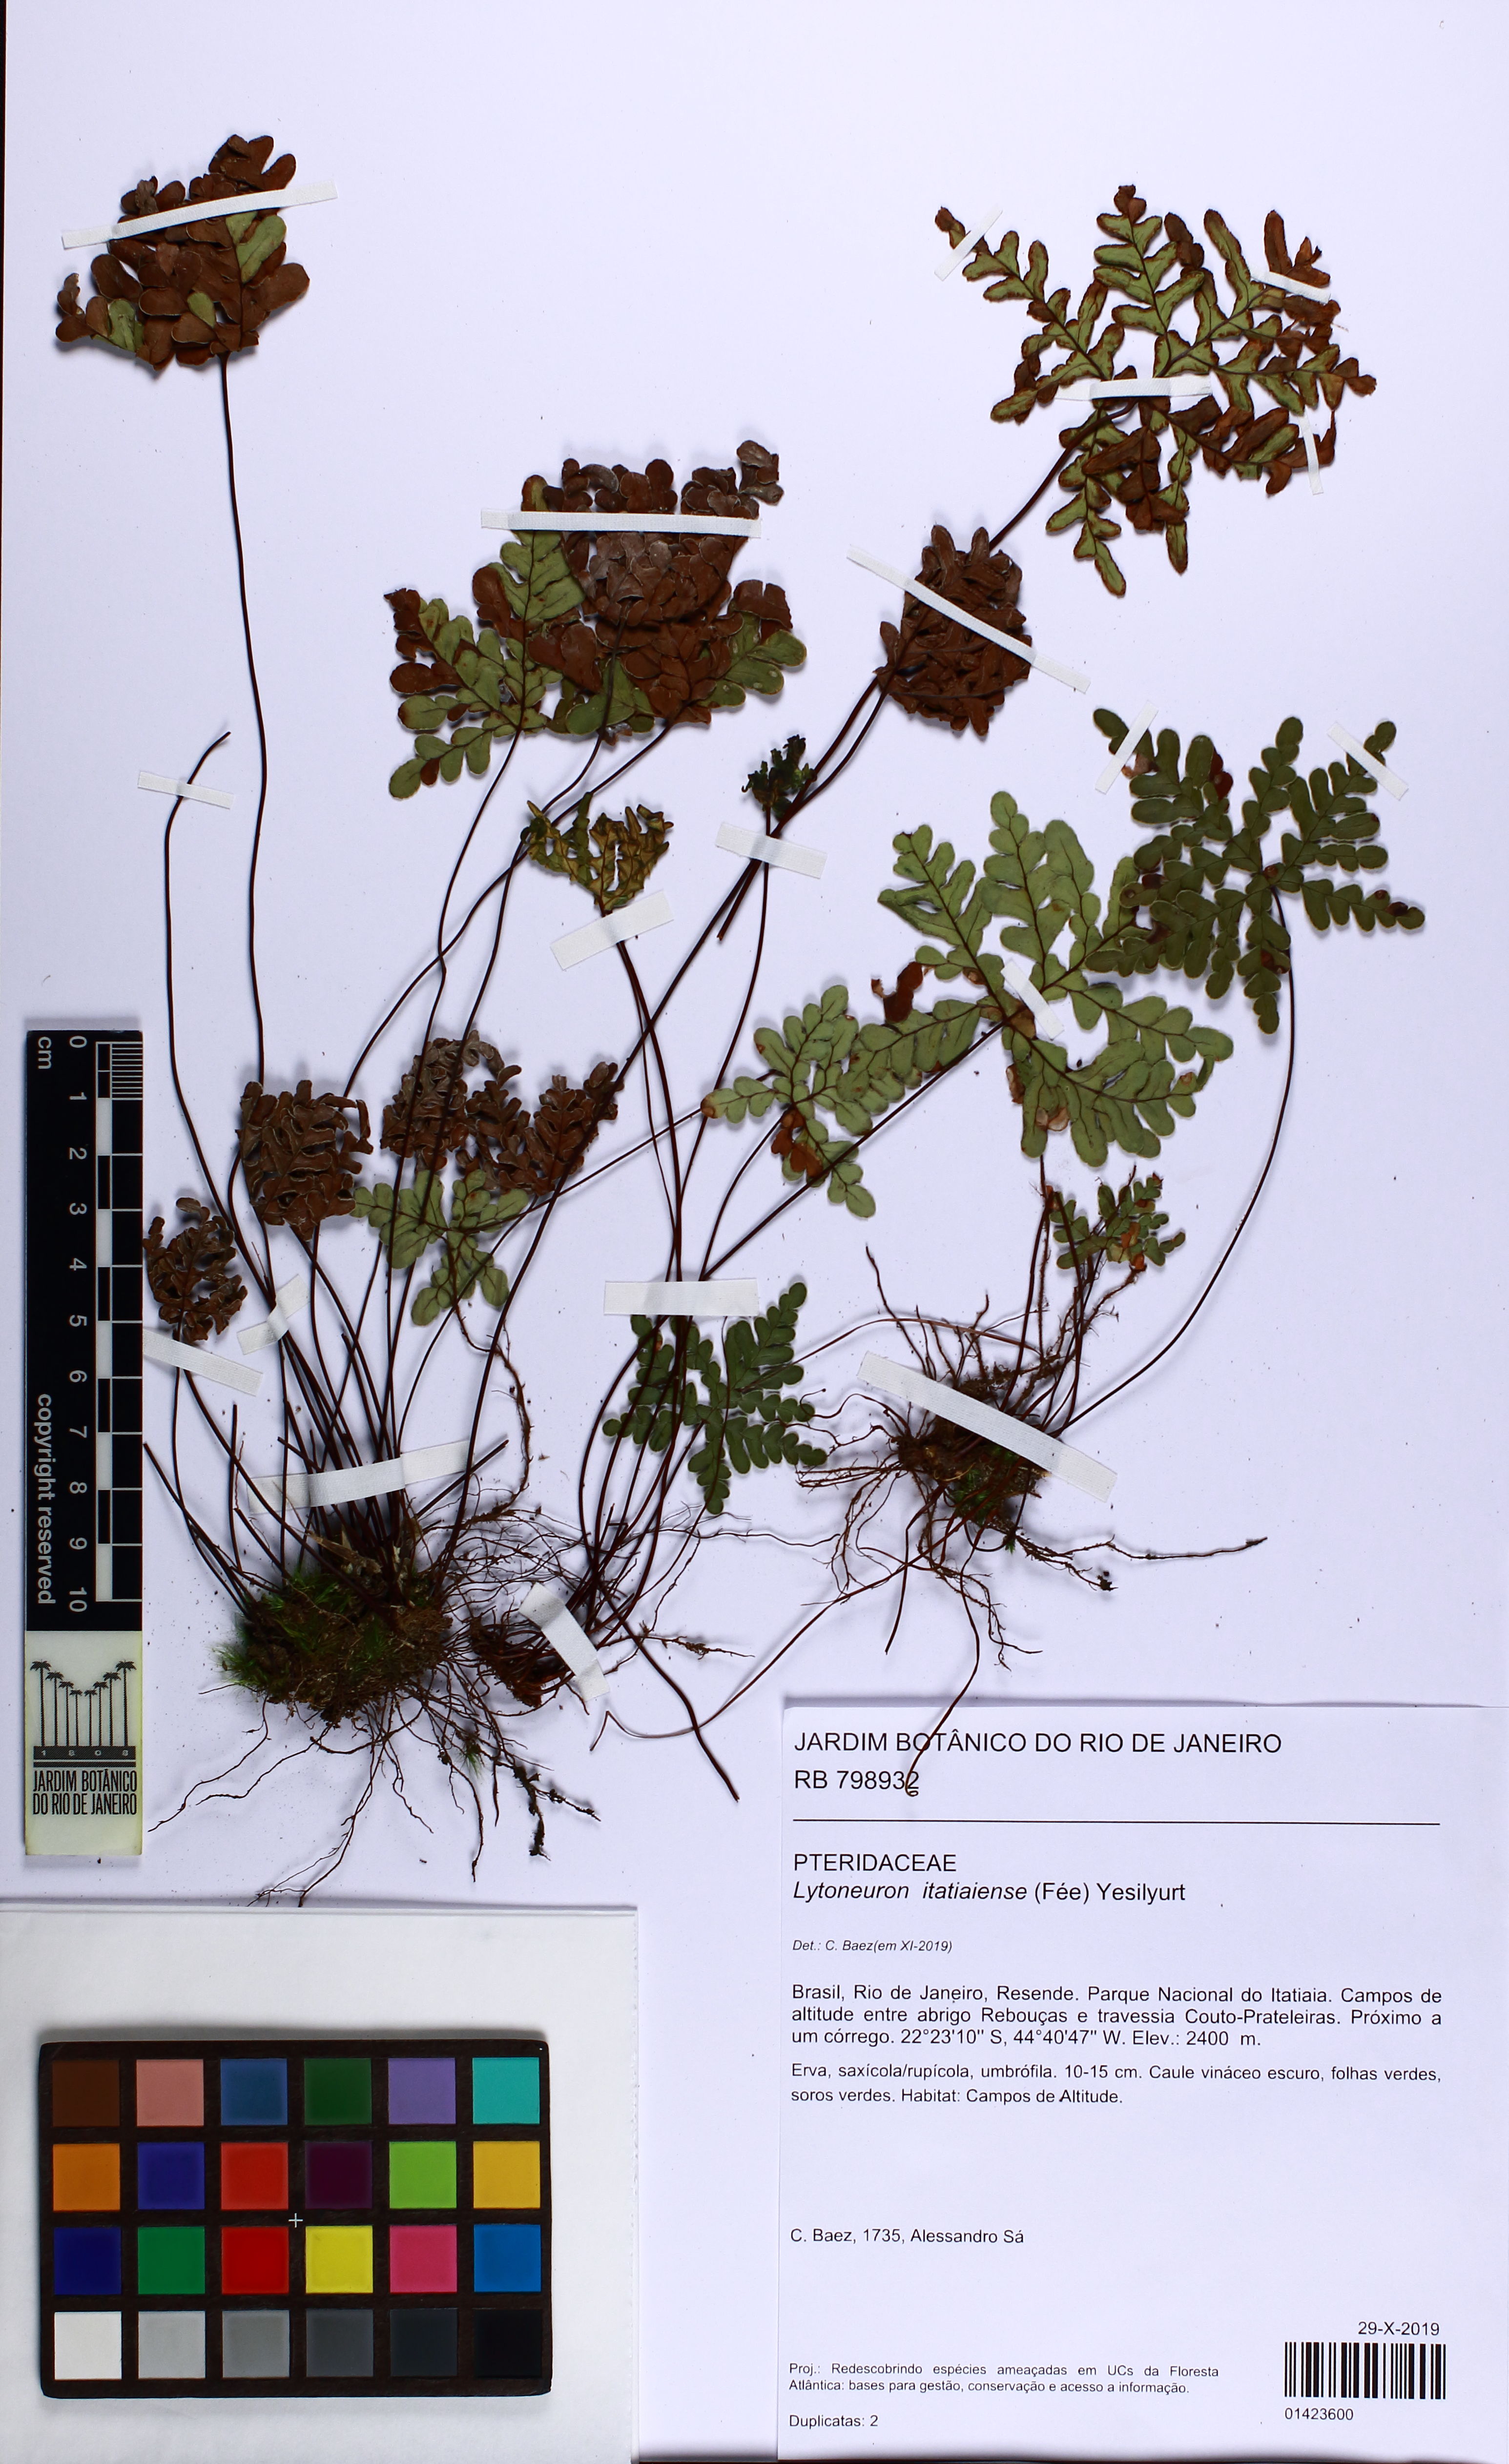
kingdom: Plantae
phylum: Tracheophyta
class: Polypodiopsida
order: Polypodiales
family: Pteridaceae
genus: Lytoneuron
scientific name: Lytoneuron itatiaiense
